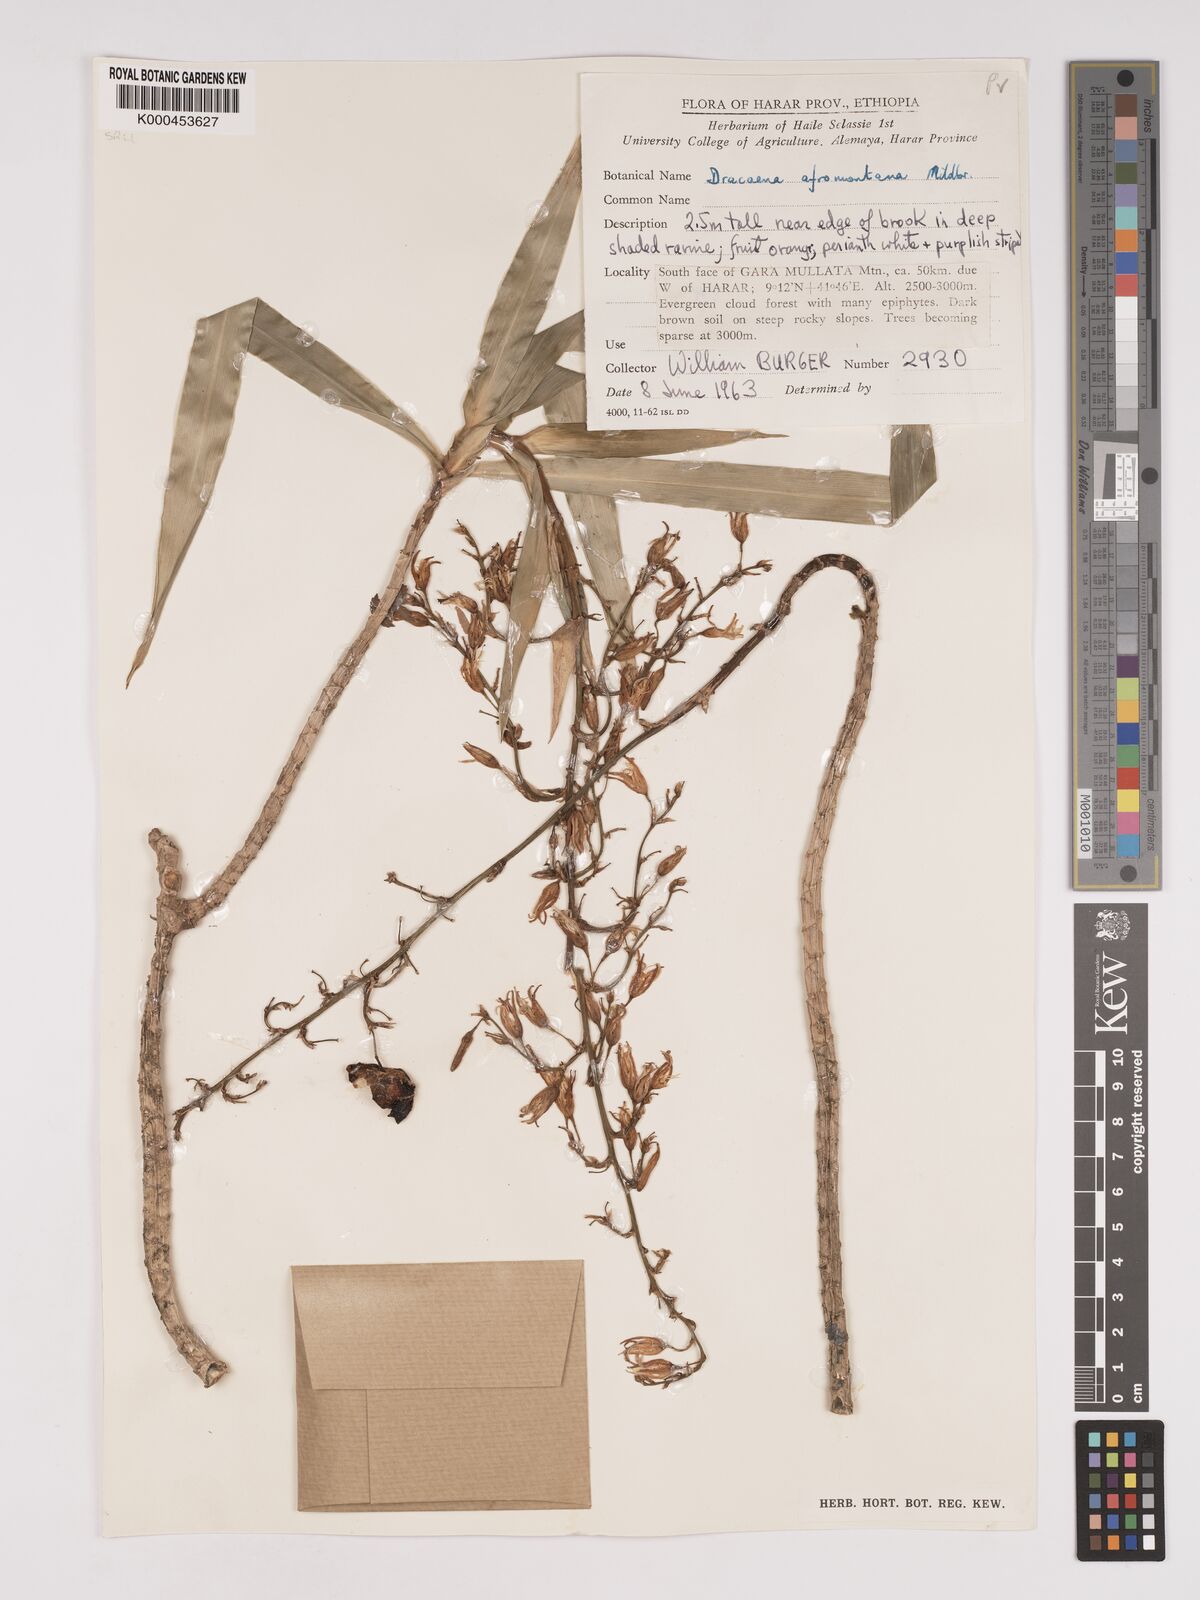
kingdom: Plantae
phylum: Tracheophyta
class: Liliopsida
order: Asparagales
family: Asparagaceae
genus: Dracaena
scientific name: Dracaena afromontana
